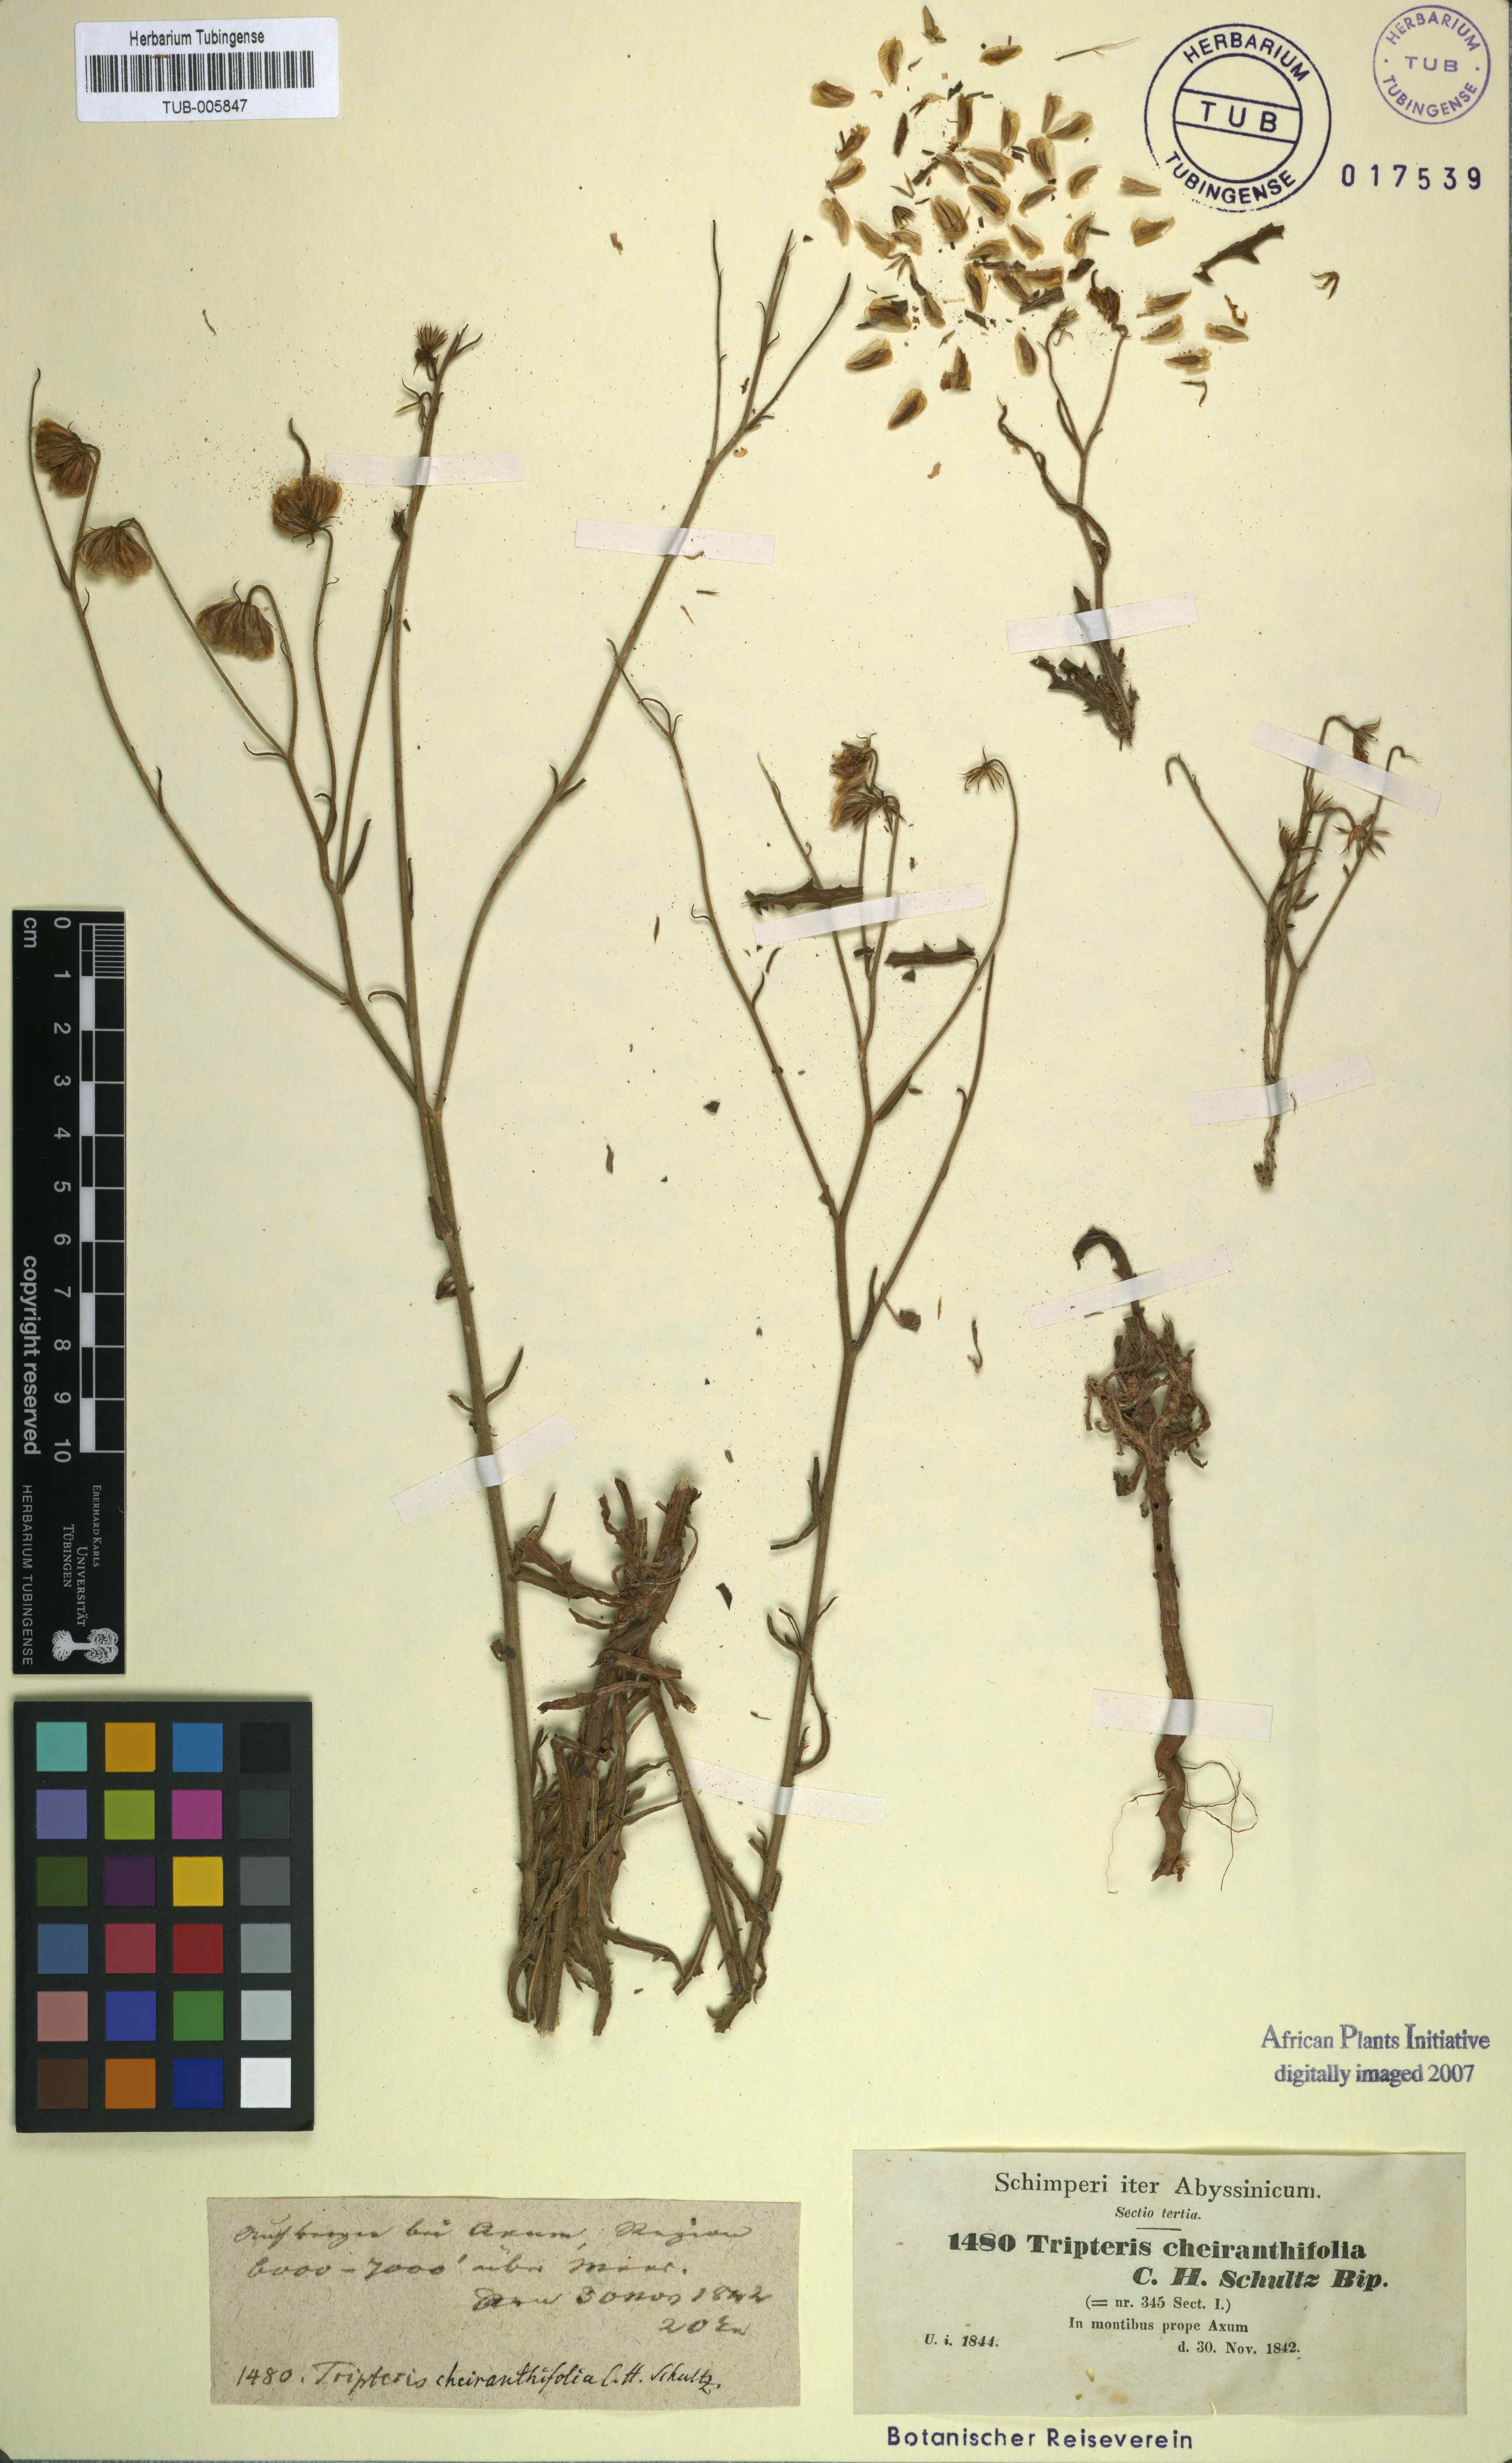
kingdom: Plantae
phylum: Tracheophyta
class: Magnoliopsida
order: Asterales
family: Asteraceae
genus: Osteospermum
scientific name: Osteospermum vaillantii
